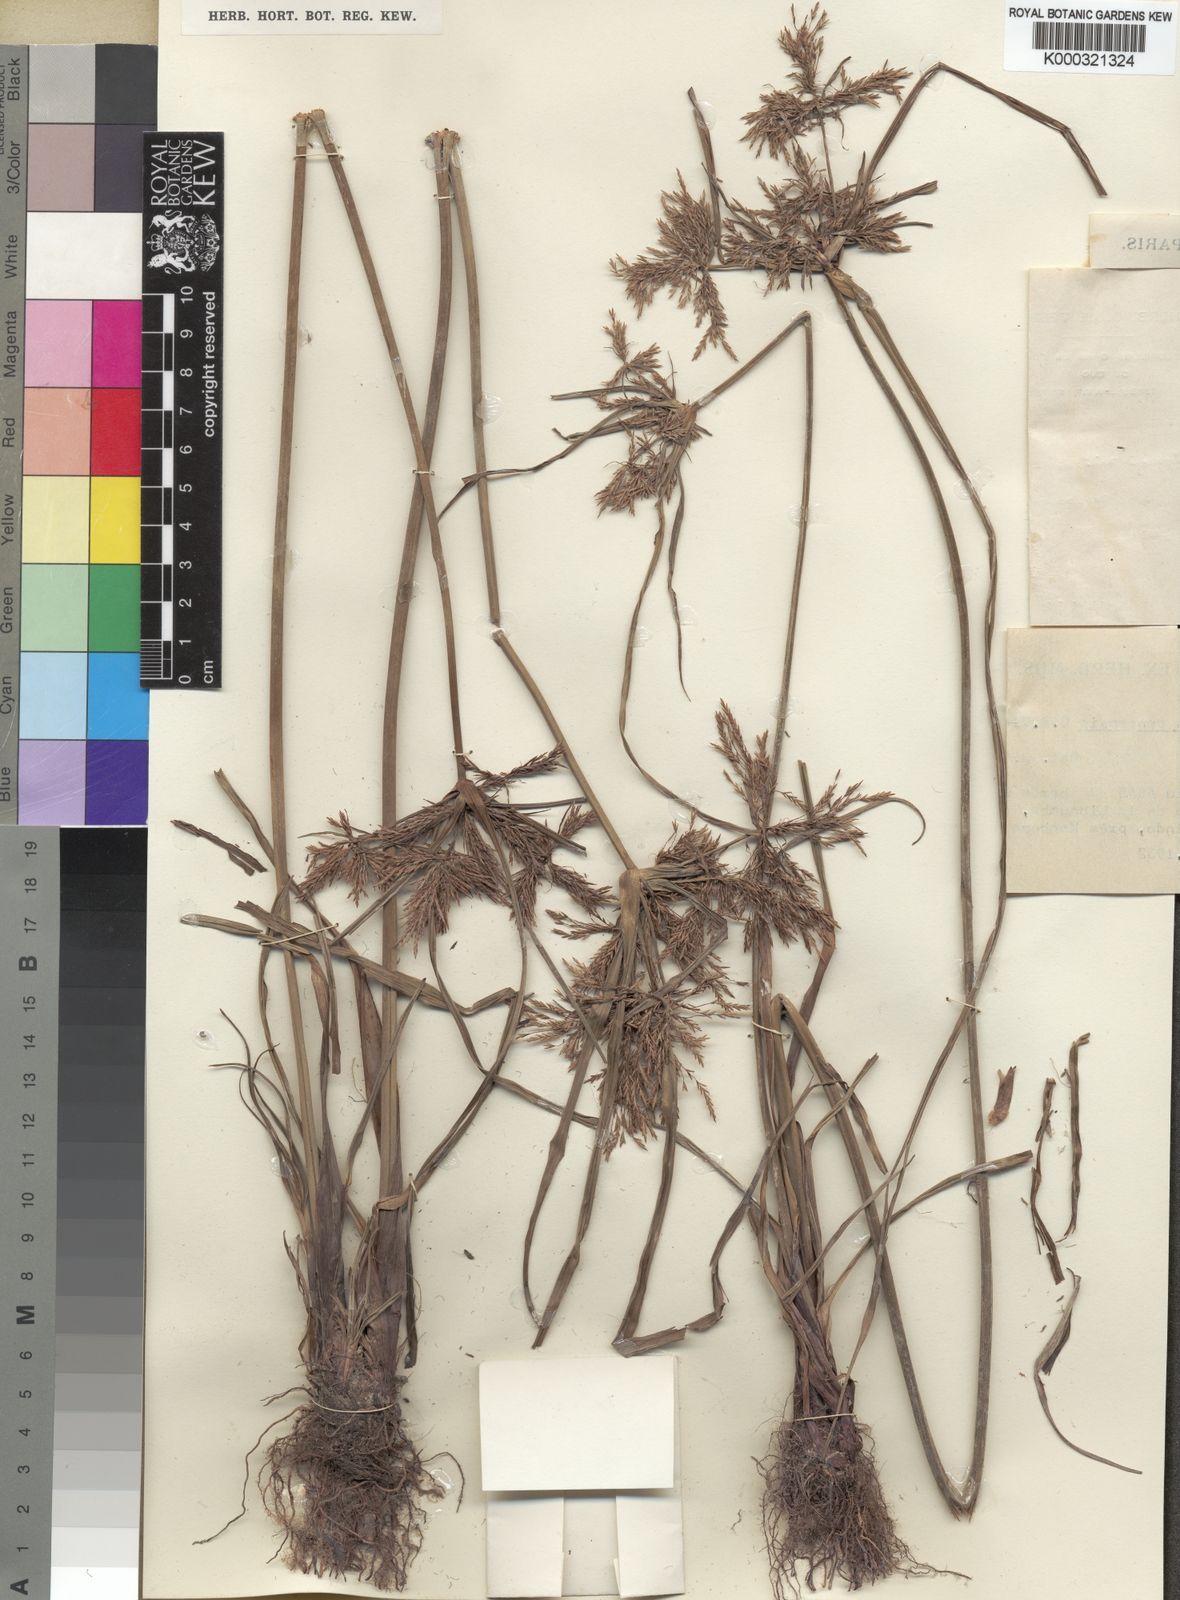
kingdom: Plantae
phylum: Tracheophyta
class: Liliopsida
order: Poales
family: Cyperaceae
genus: Cyperus
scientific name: Cyperus congensis
